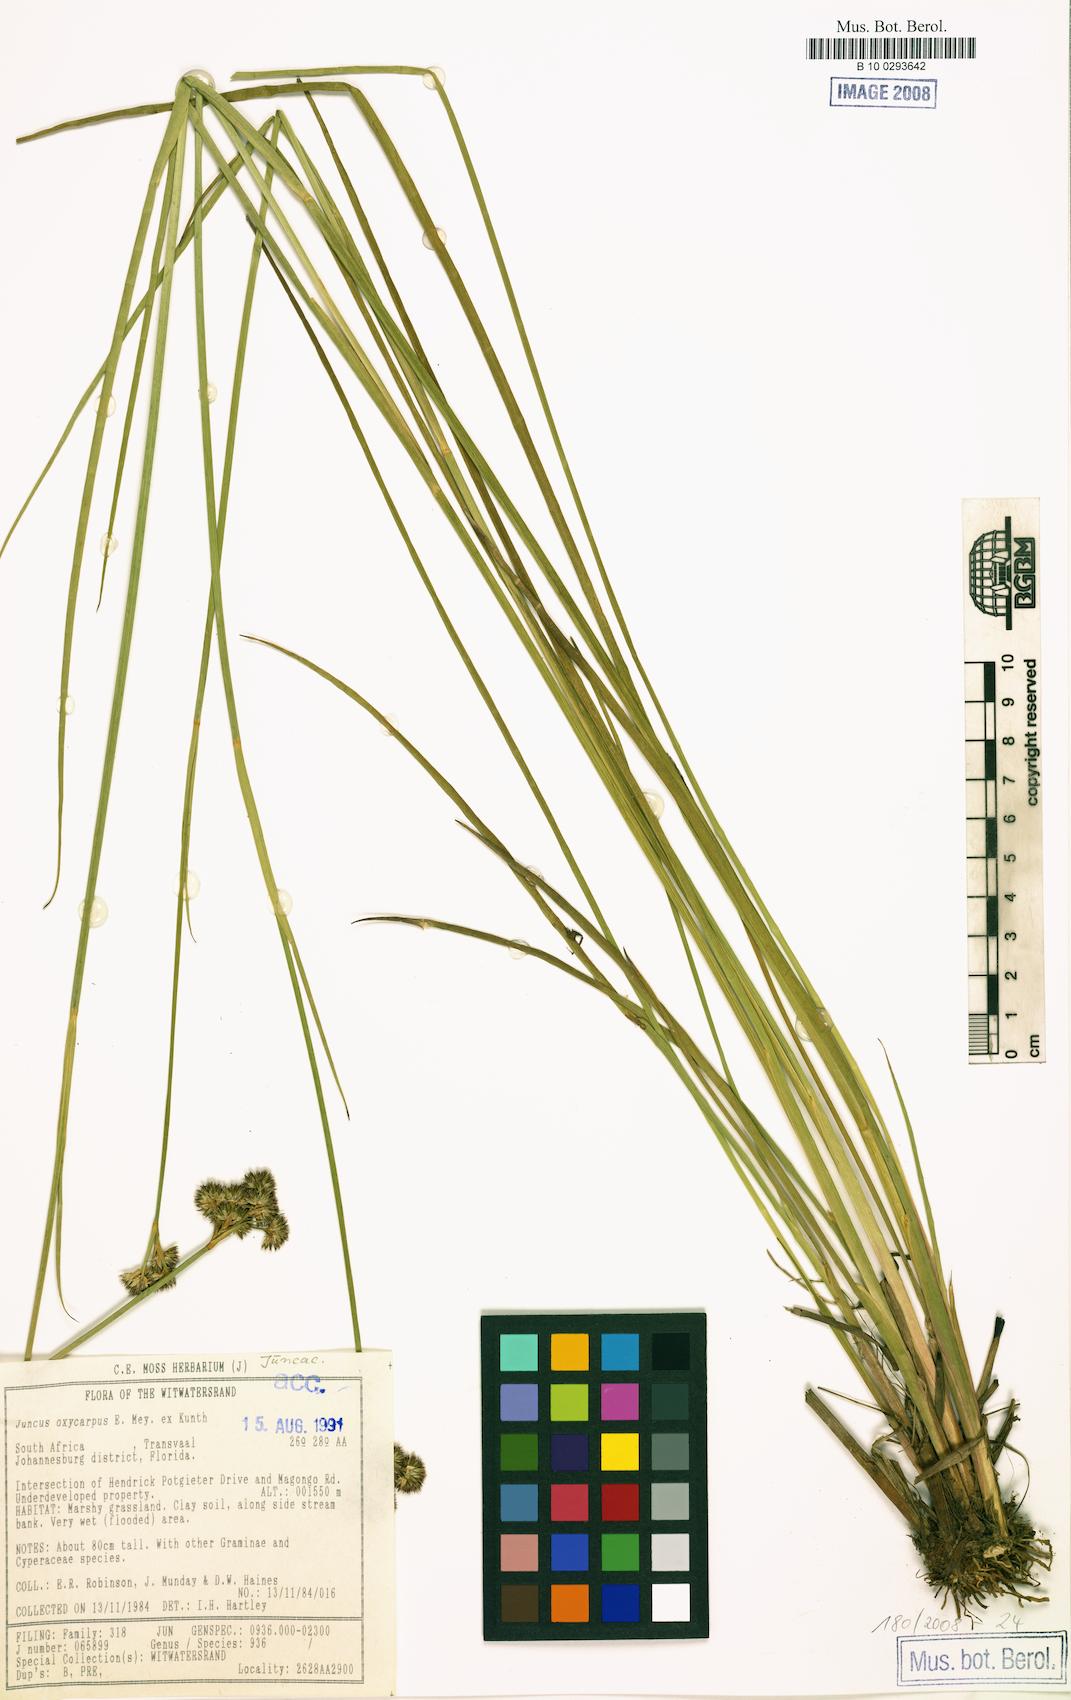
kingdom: Plantae
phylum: Tracheophyta
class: Liliopsida
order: Poales
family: Juncaceae
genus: Juncus
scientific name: Juncus oxycarpus
